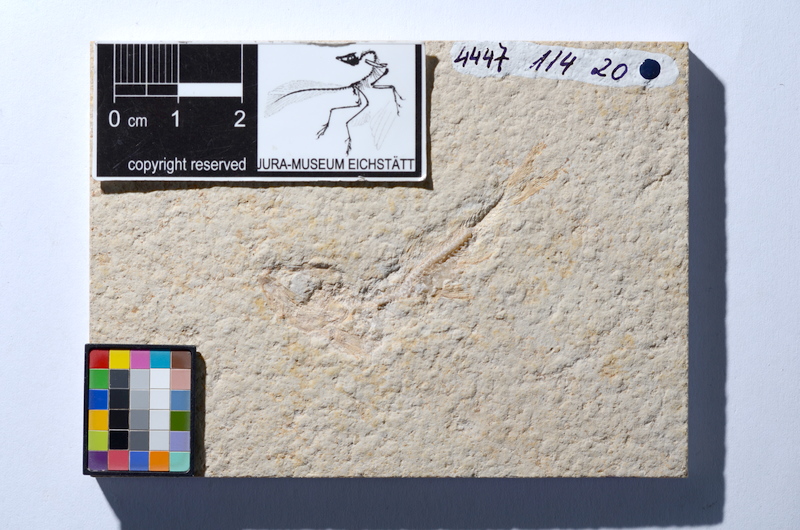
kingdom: Animalia
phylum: Chordata
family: Ascalaboidae
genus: Tharsis
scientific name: Tharsis dubius
